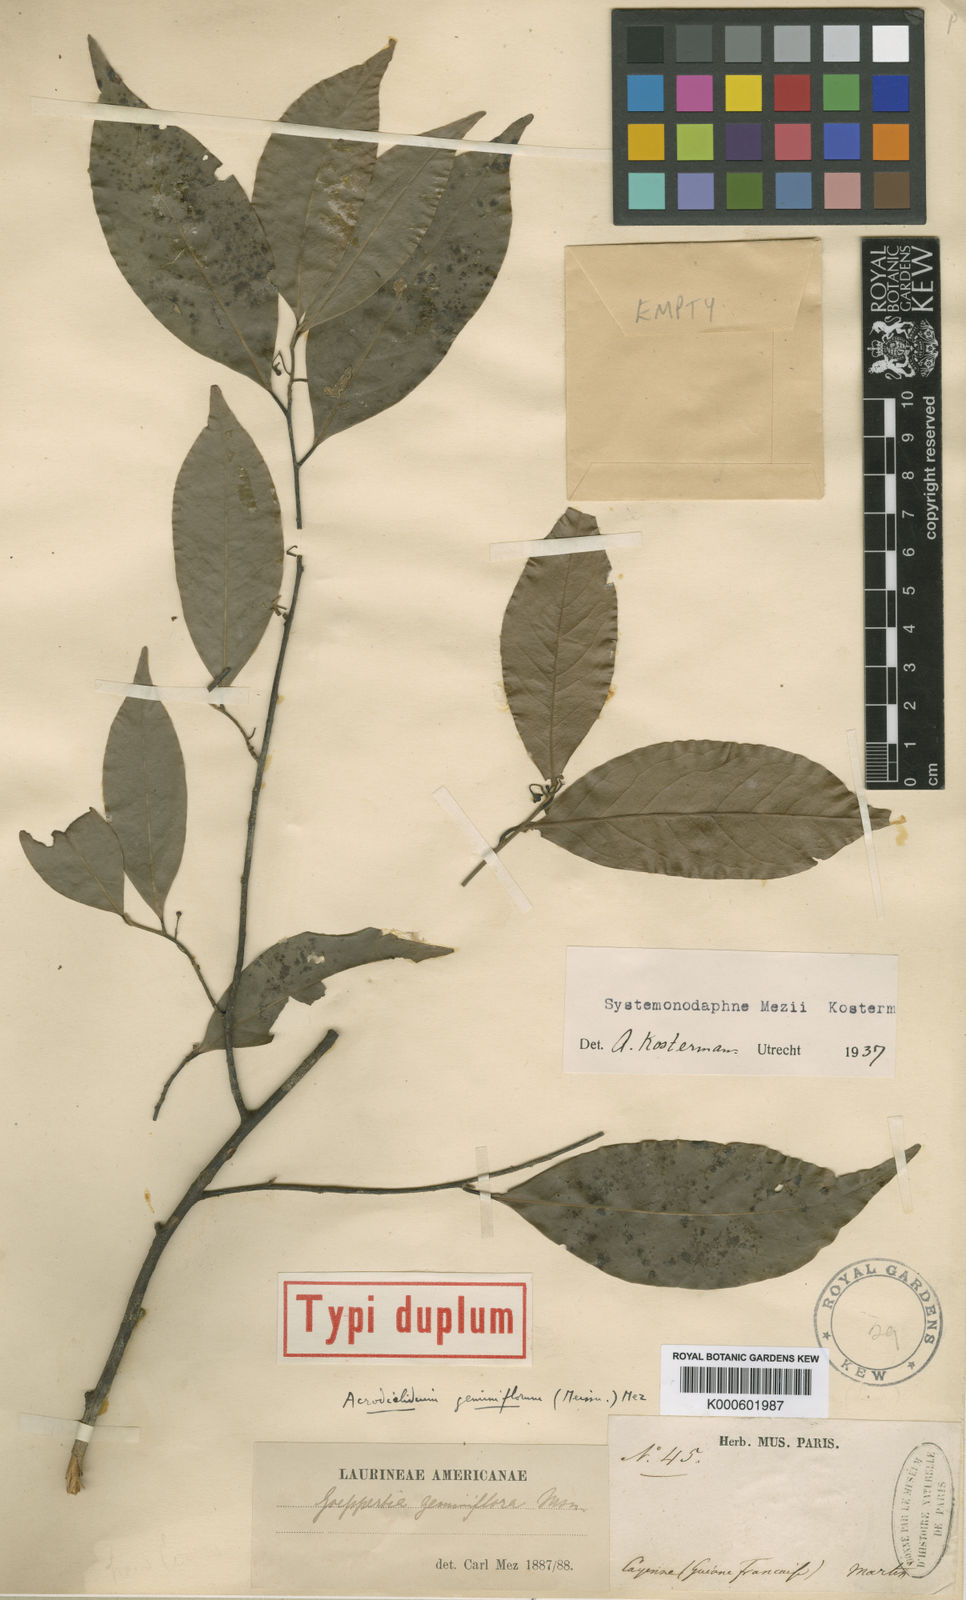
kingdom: Plantae
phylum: Tracheophyta
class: Magnoliopsida
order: Laurales
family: Lauraceae
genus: Kubitzkia
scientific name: Kubitzkia mezii
